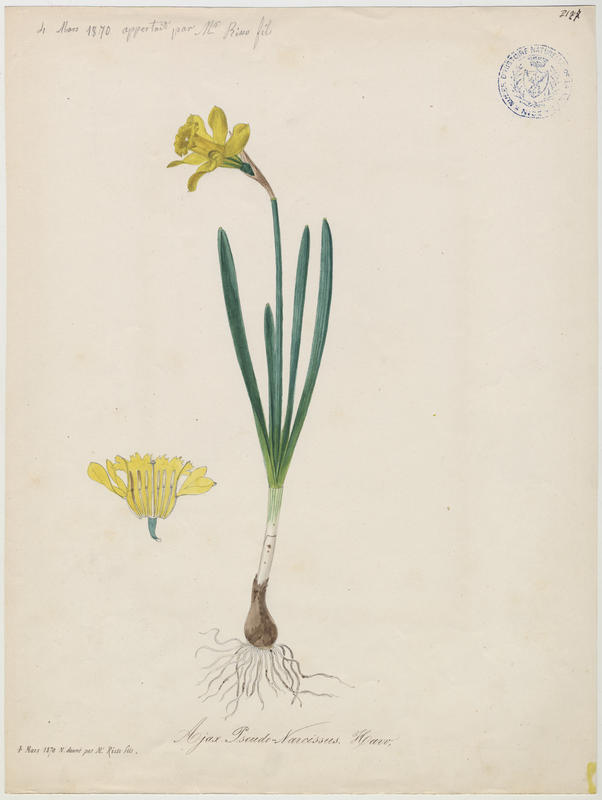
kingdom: Plantae
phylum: Tracheophyta
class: Liliopsida
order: Asparagales
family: Amaryllidaceae
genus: Narcissus
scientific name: Narcissus pseudonarcissus
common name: Daffodil
